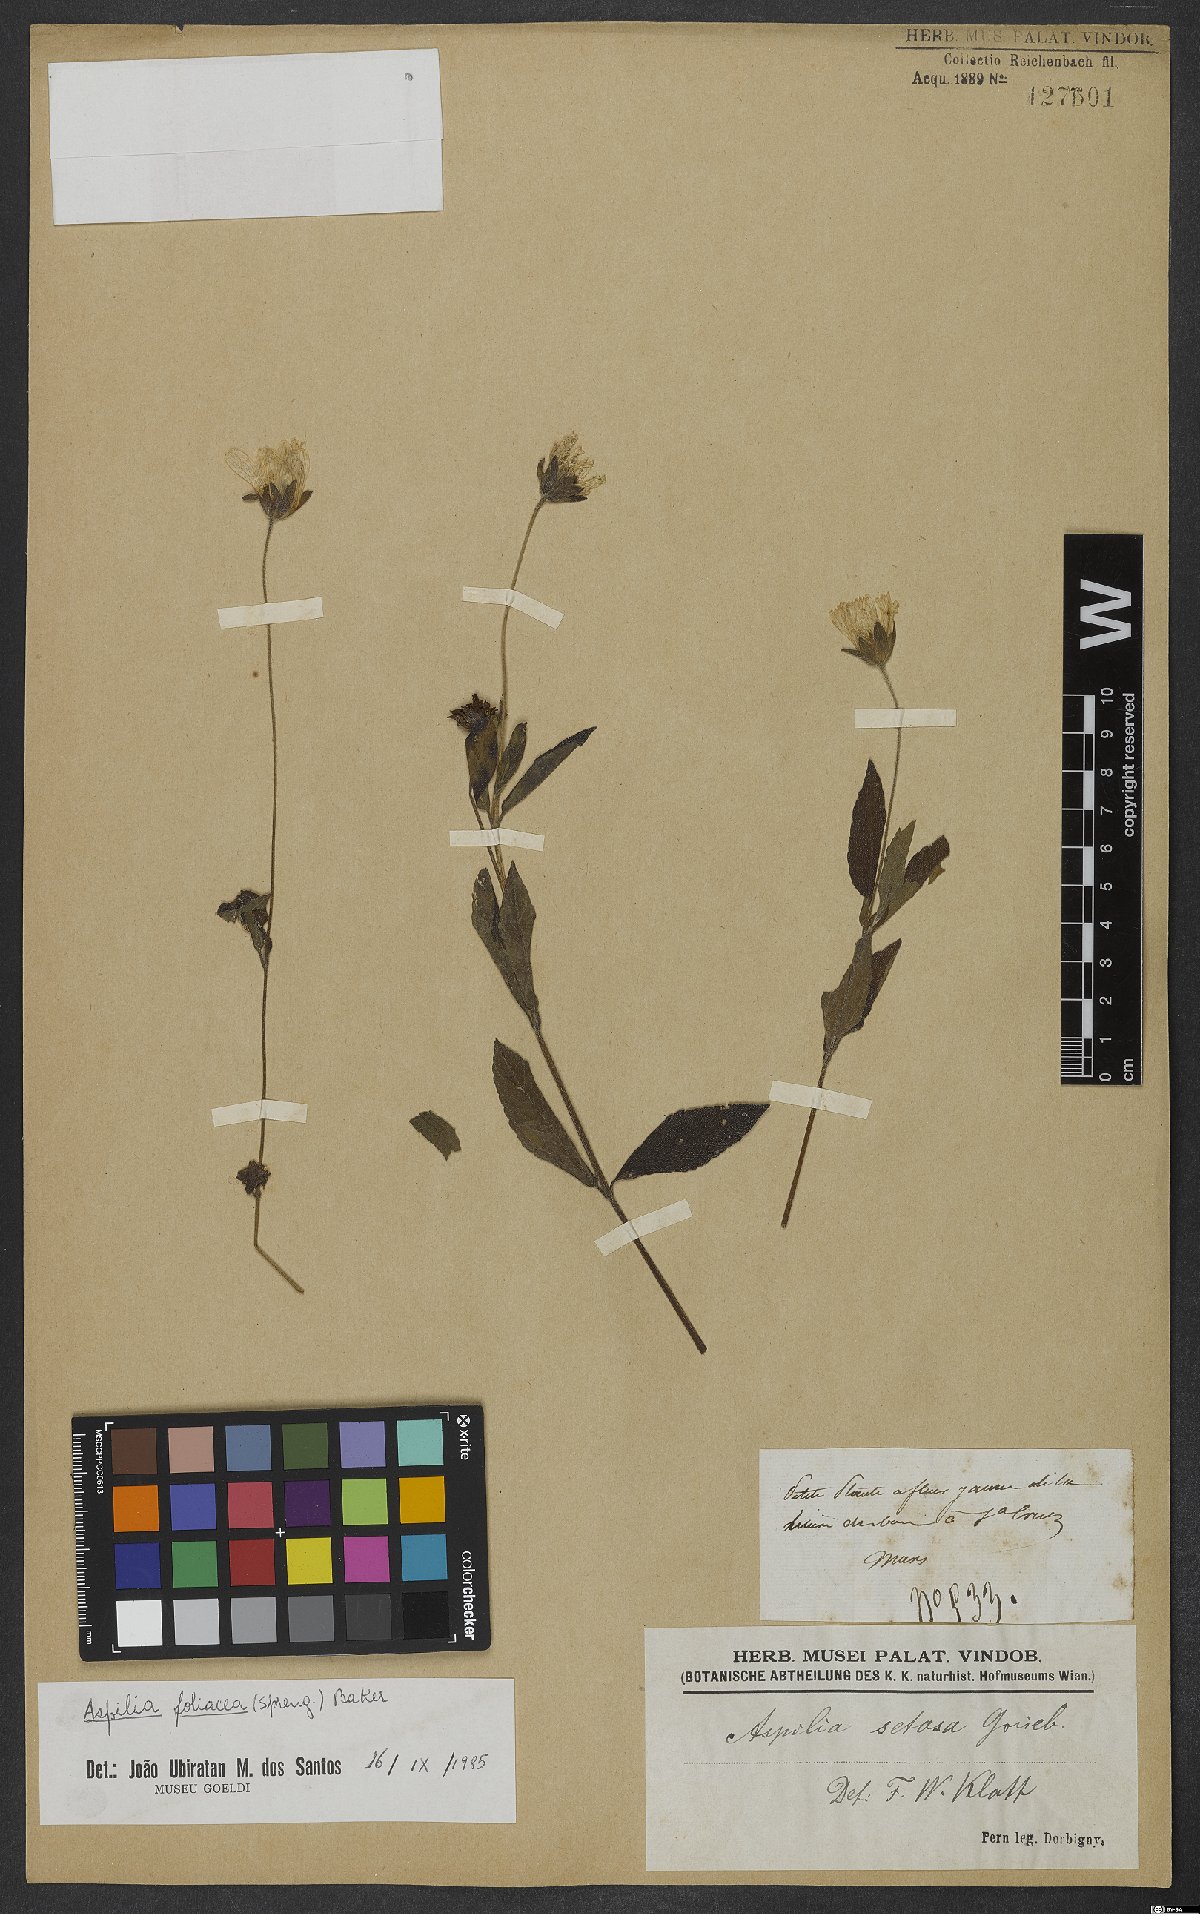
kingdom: Plantae
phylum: Tracheophyta
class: Magnoliopsida
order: Asterales
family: Asteraceae
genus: Aspilia
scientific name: Aspilia foliosa
